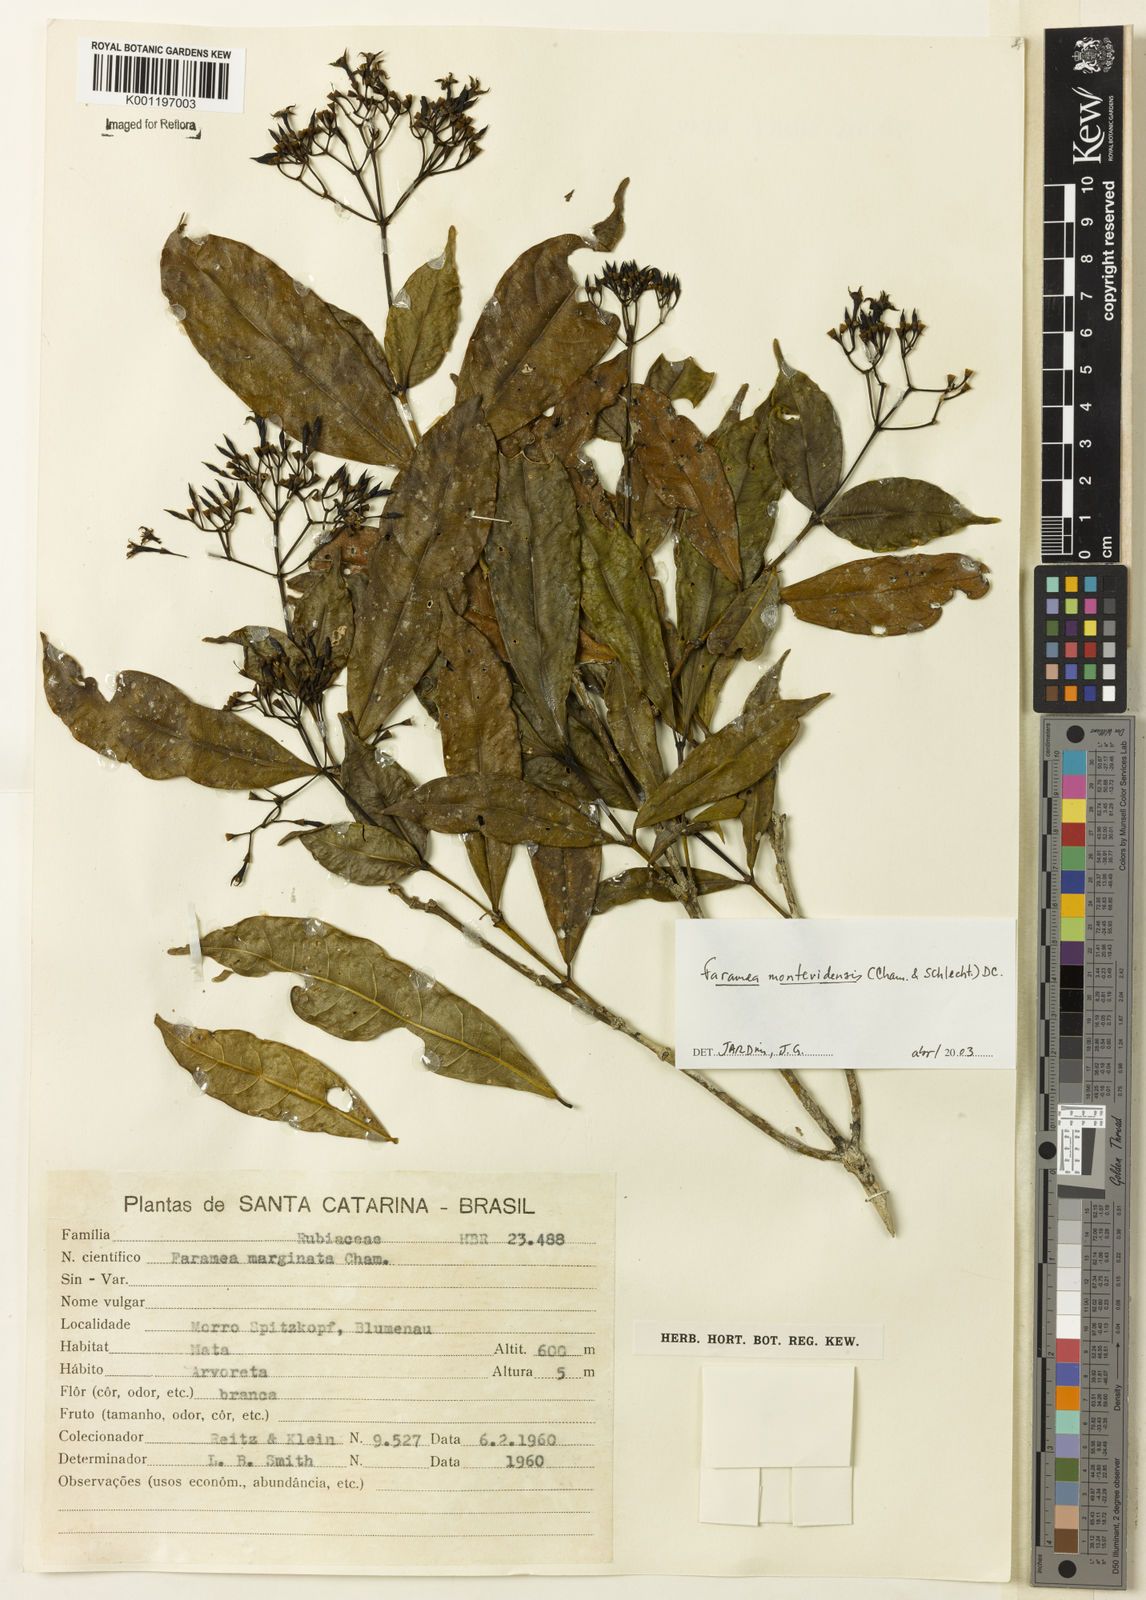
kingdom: Plantae
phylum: Tracheophyta
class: Magnoliopsida
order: Gentianales
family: Rubiaceae
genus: Faramea
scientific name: Faramea montevidensis
